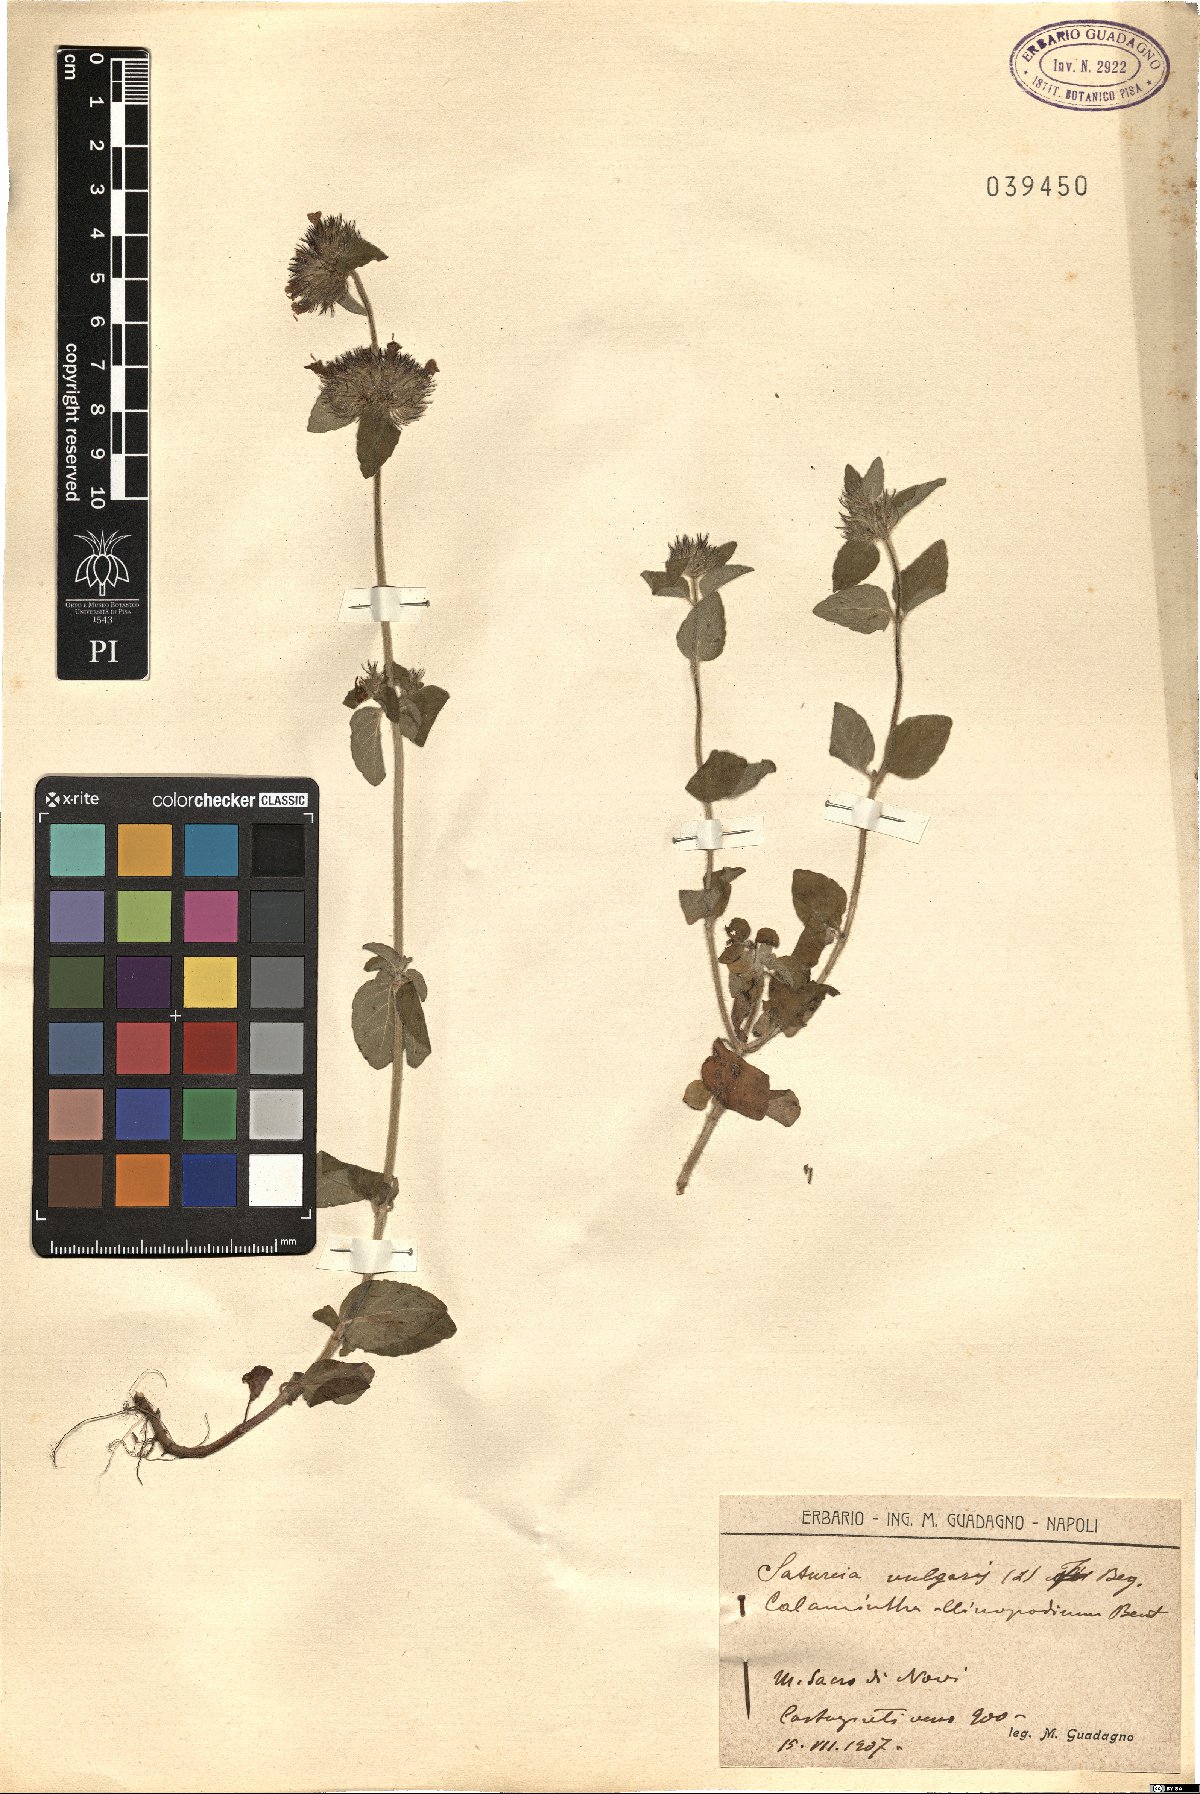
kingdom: Plantae
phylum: Tracheophyta
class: Magnoliopsida
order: Lamiales
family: Lamiaceae
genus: Clinopodium
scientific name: Clinopodium vulgare
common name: Wild basil
